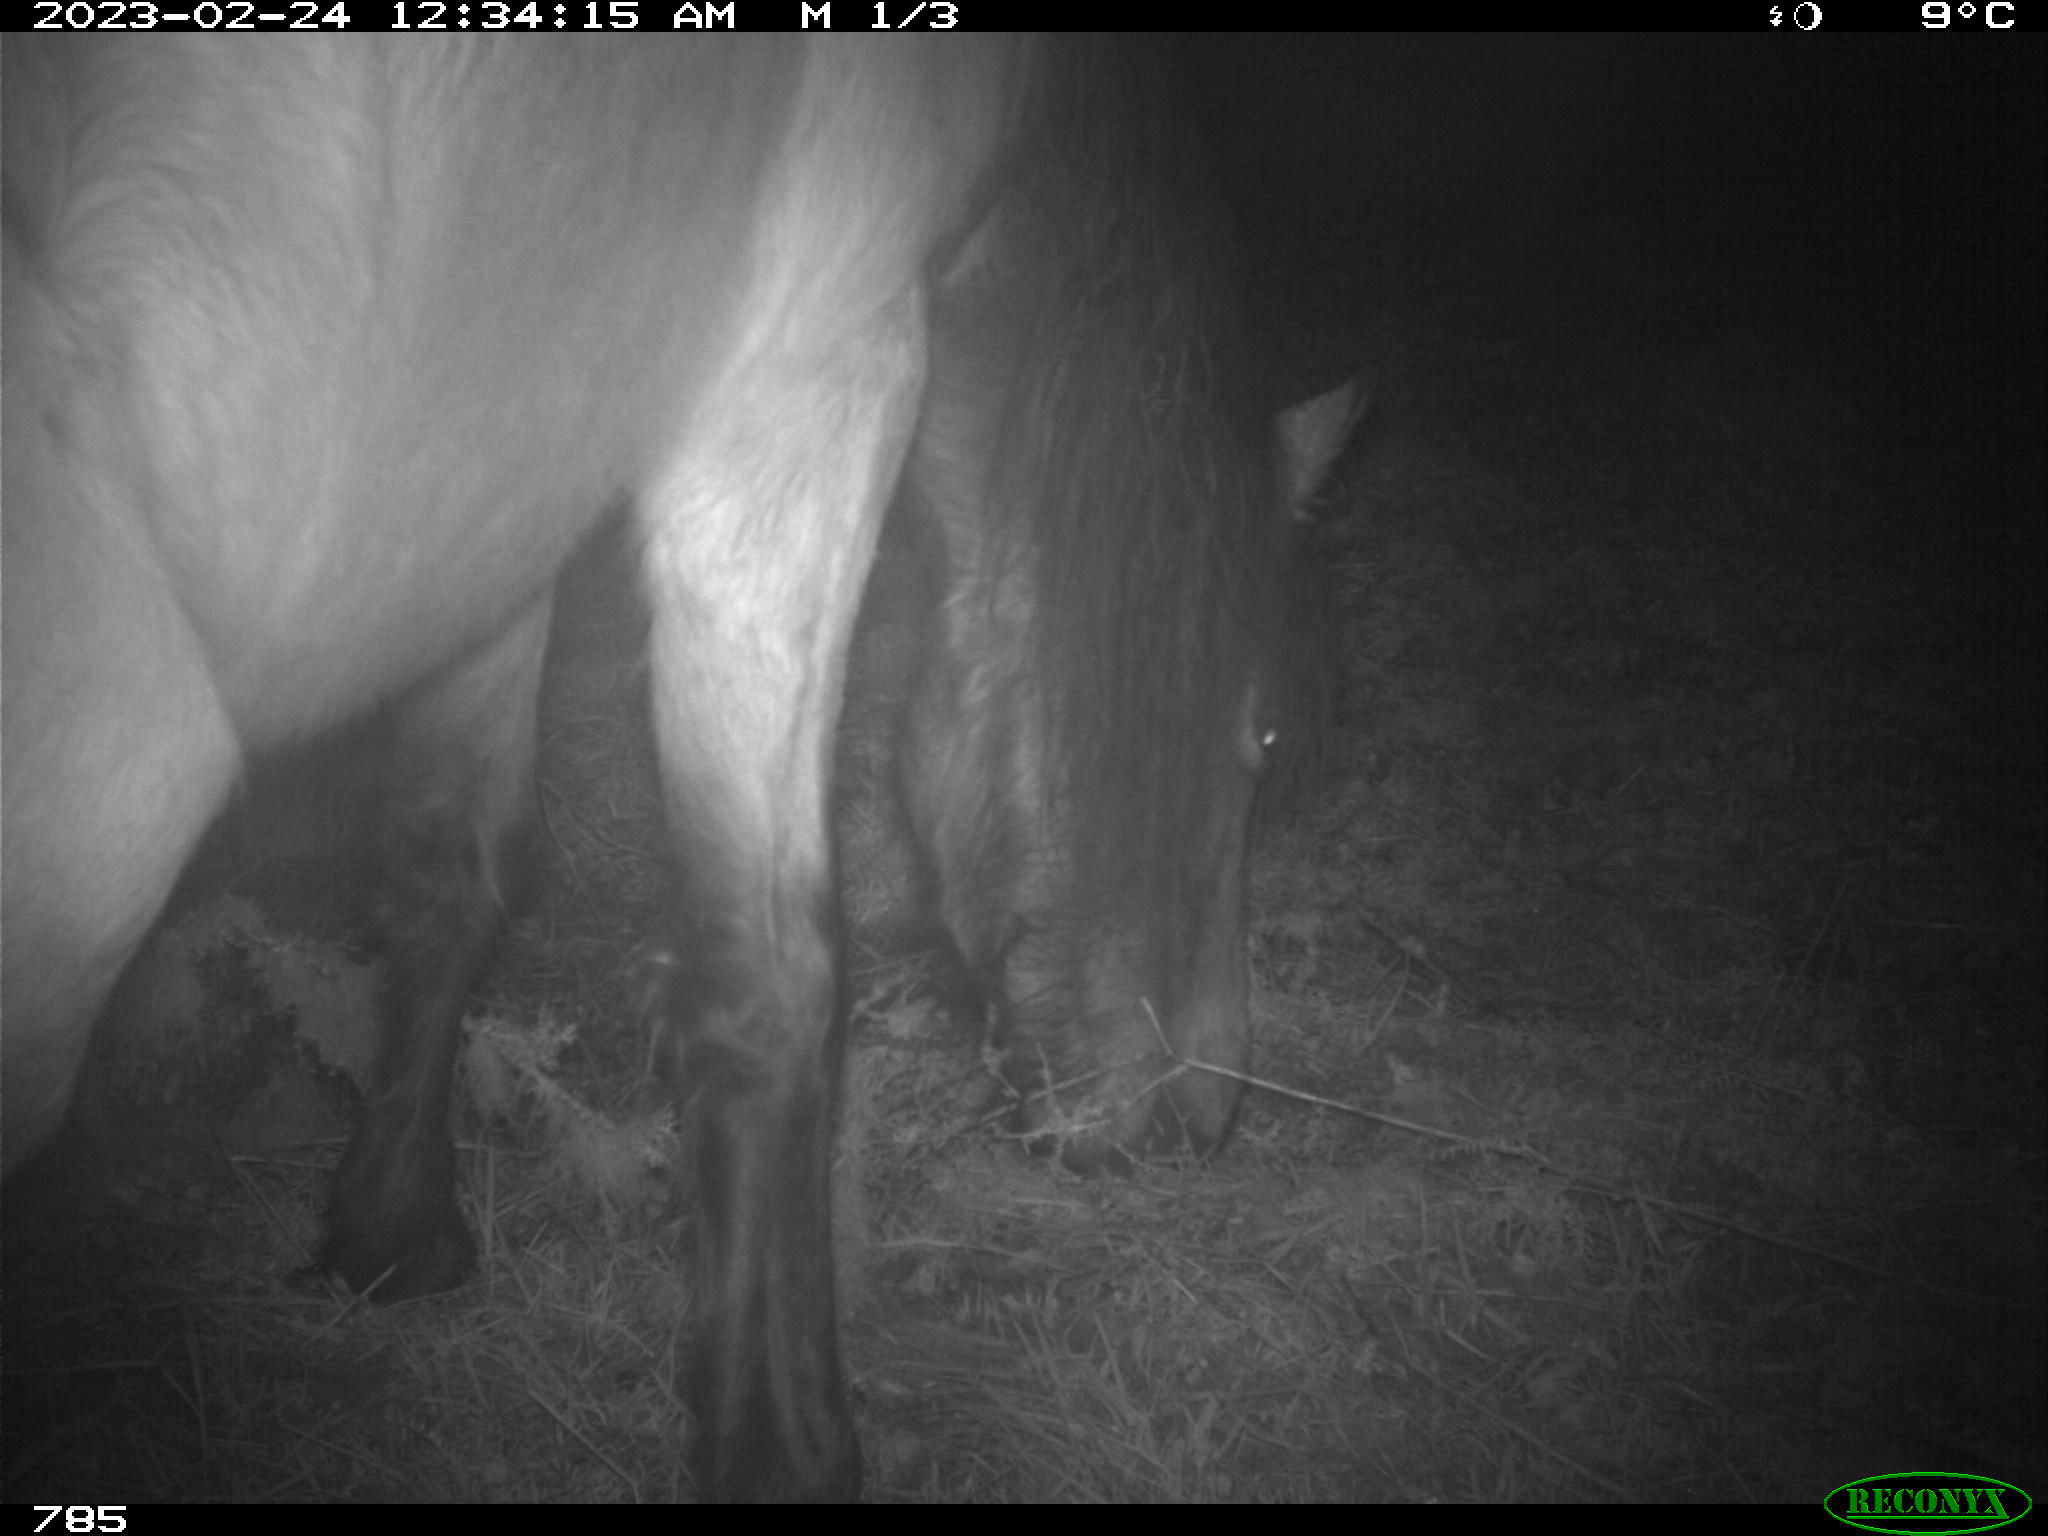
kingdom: Animalia
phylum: Chordata
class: Mammalia
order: Perissodactyla
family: Equidae
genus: Equus
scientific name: Equus caballus
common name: Horse
